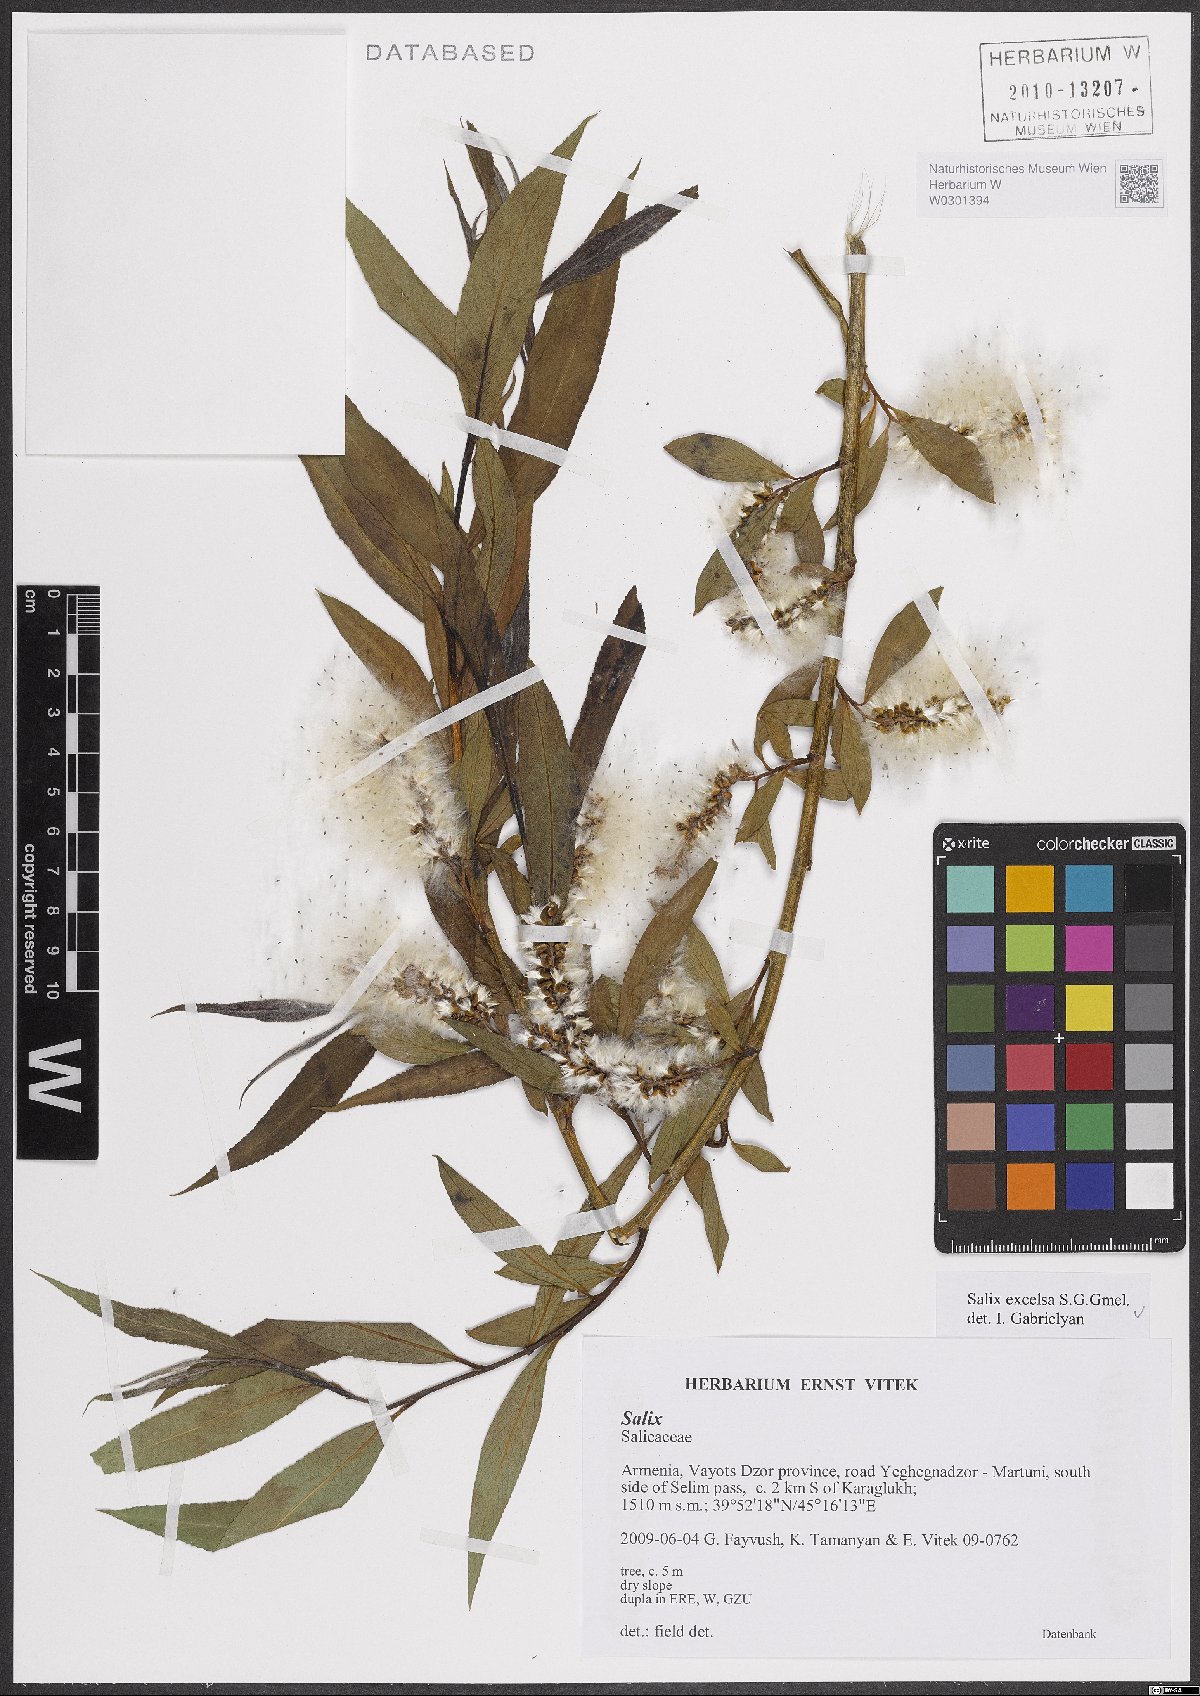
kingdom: Plantae
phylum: Tracheophyta
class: Magnoliopsida
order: Malpighiales
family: Salicaceae
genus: Salix
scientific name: Salix excelsa
